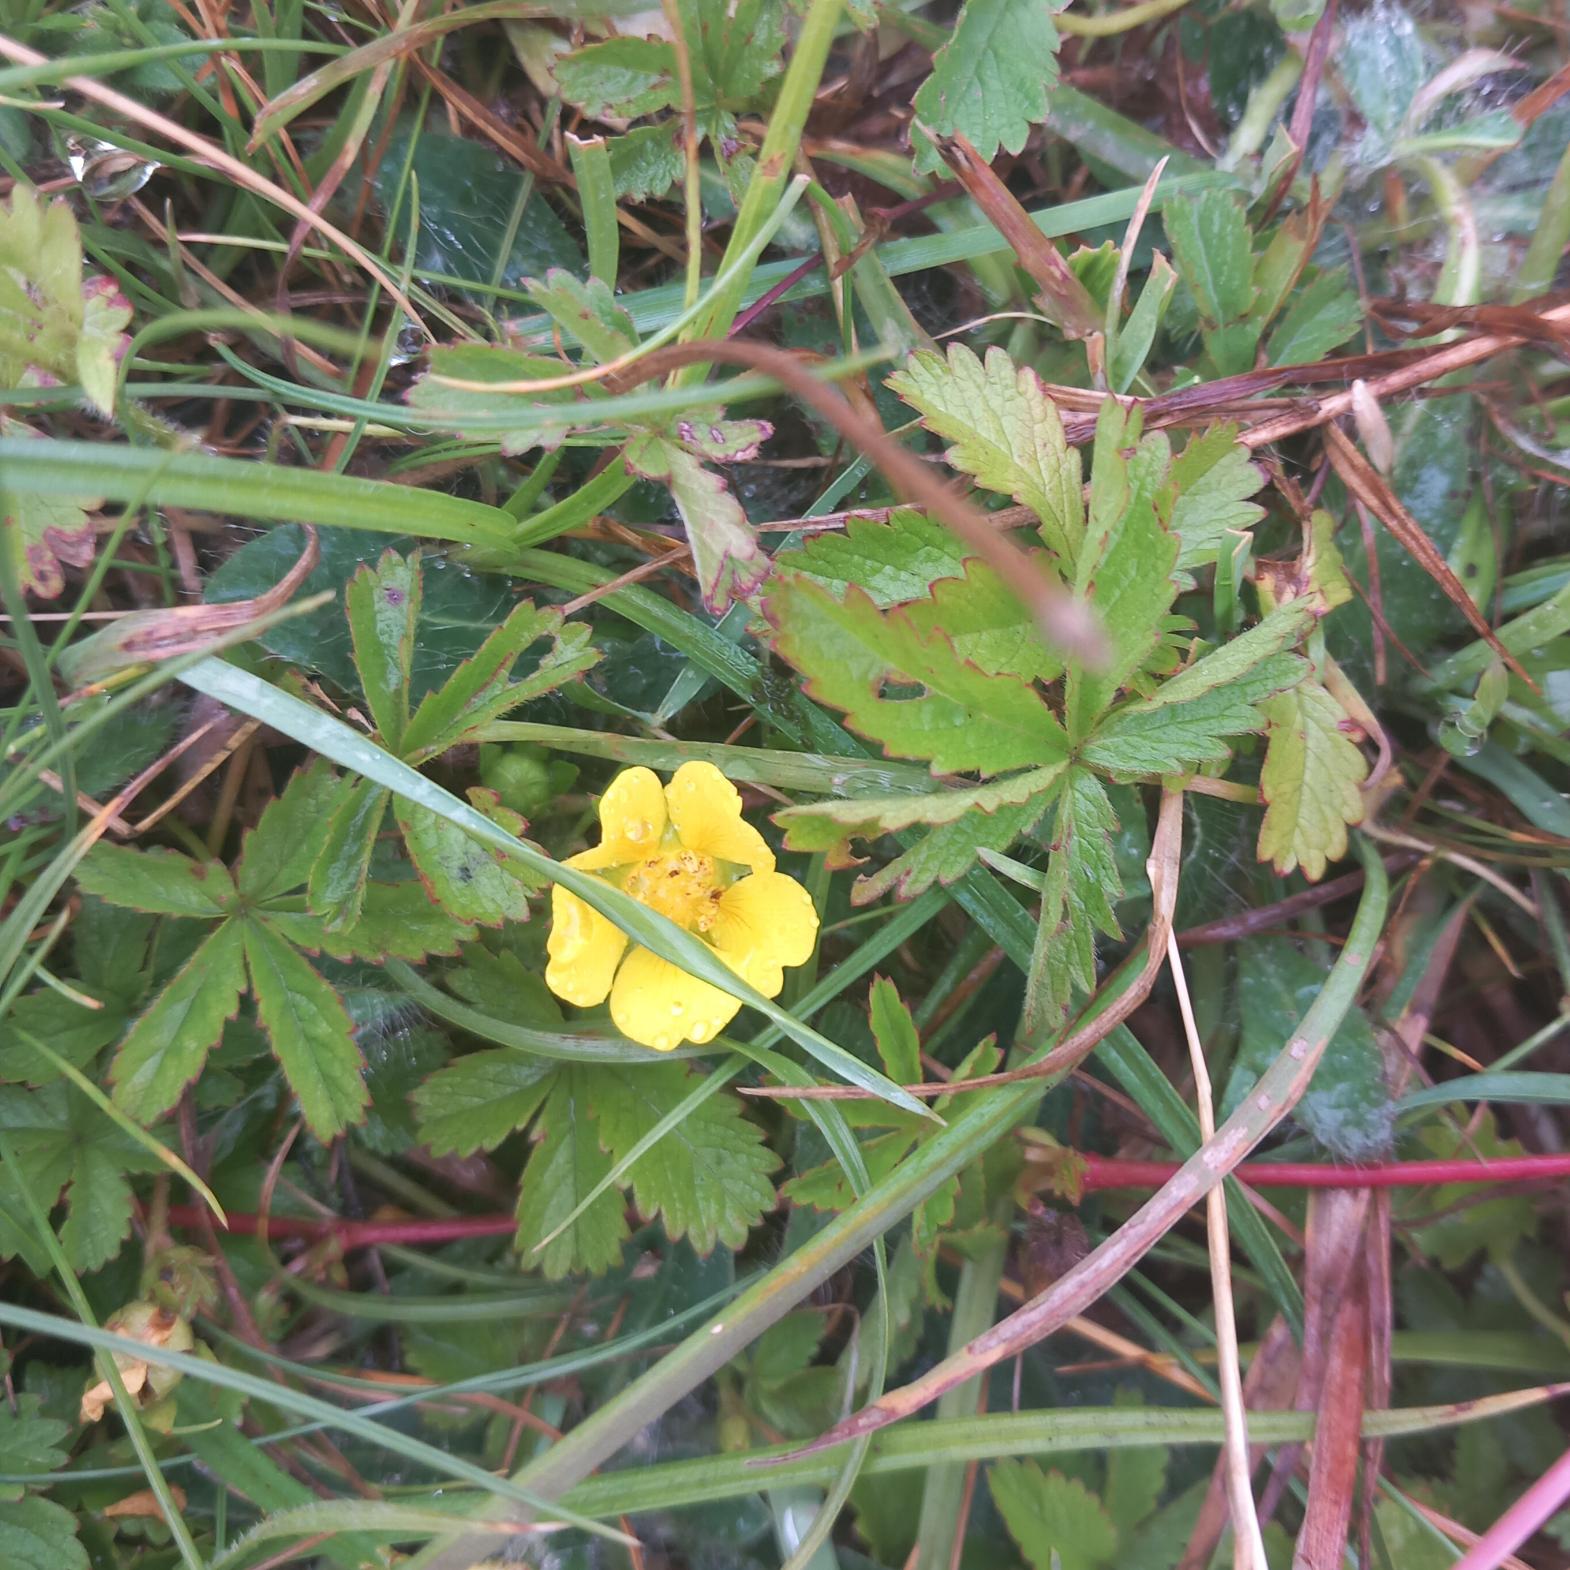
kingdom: Plantae
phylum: Tracheophyta
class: Magnoliopsida
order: Rosales
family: Rosaceae
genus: Potentilla
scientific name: Potentilla reptans
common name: Krybende potentil
